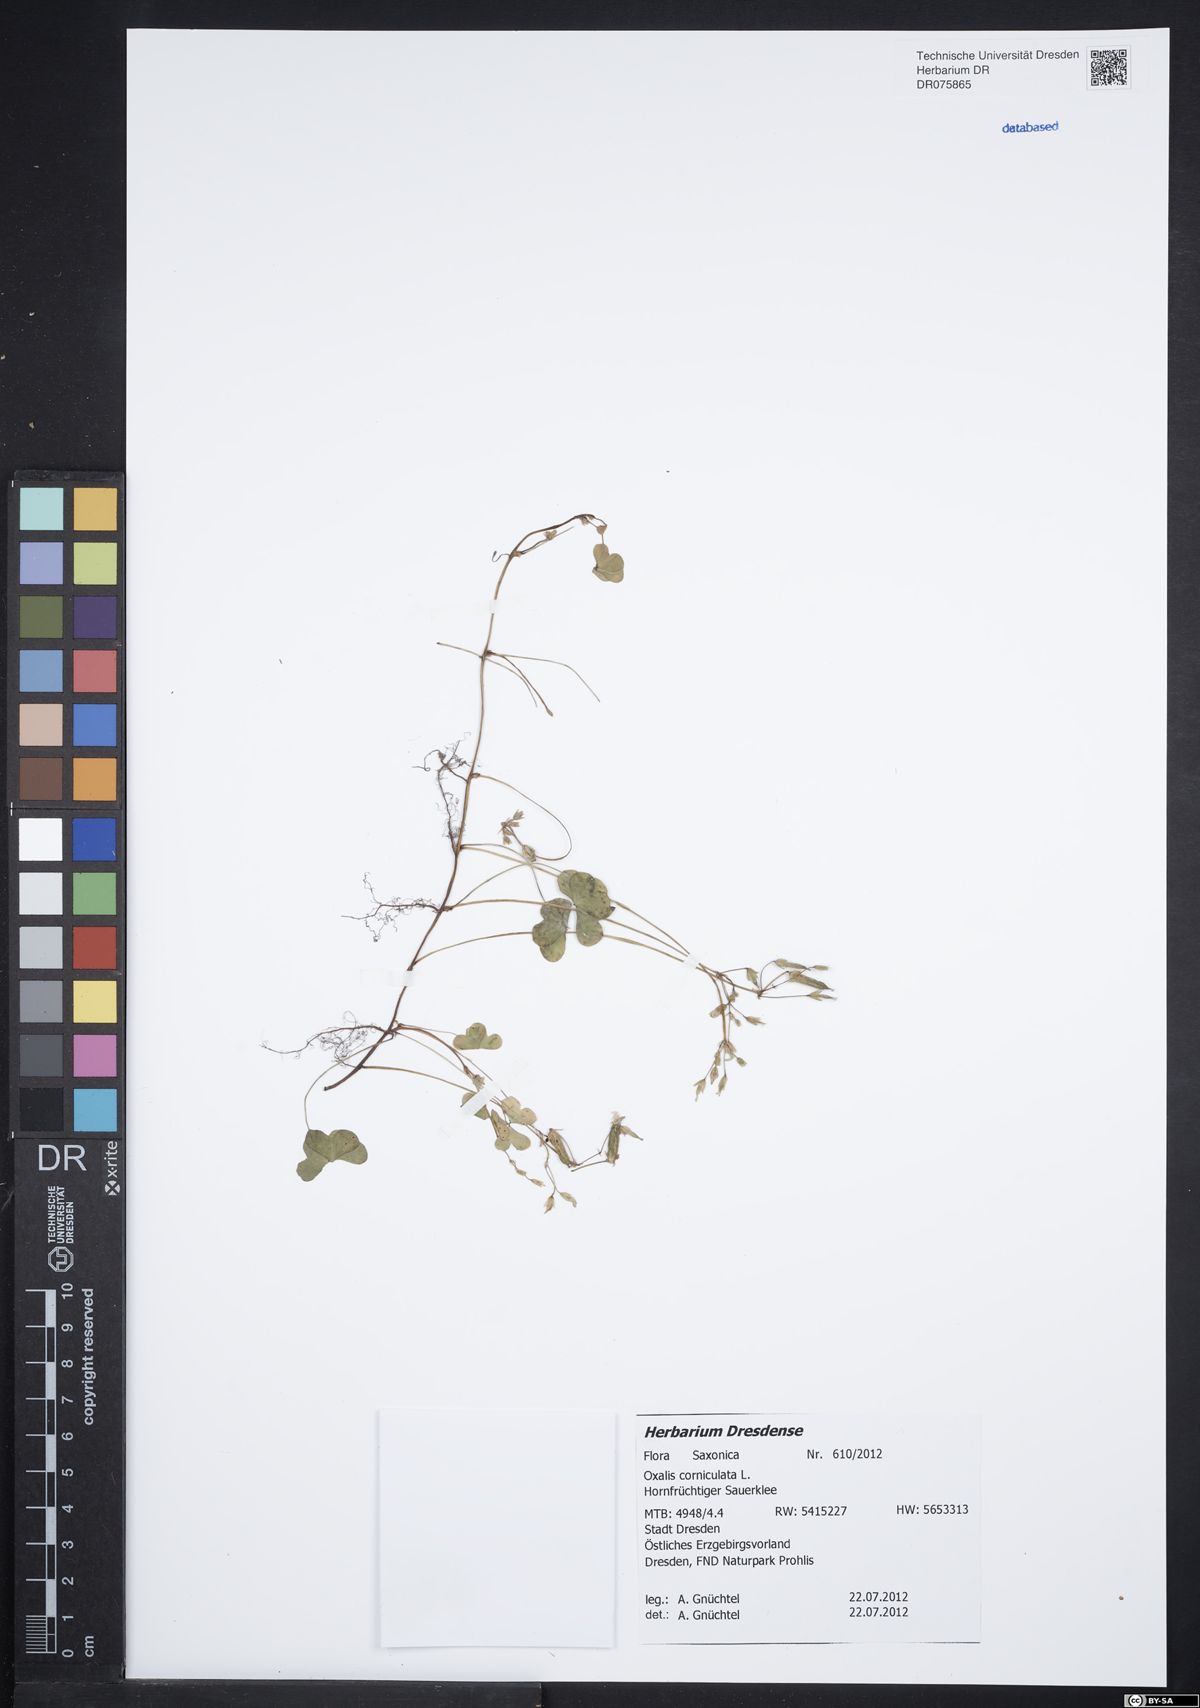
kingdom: Plantae
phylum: Tracheophyta
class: Magnoliopsida
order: Oxalidales
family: Oxalidaceae
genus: Oxalis
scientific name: Oxalis corniculata
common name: Procumbent yellow-sorrel
